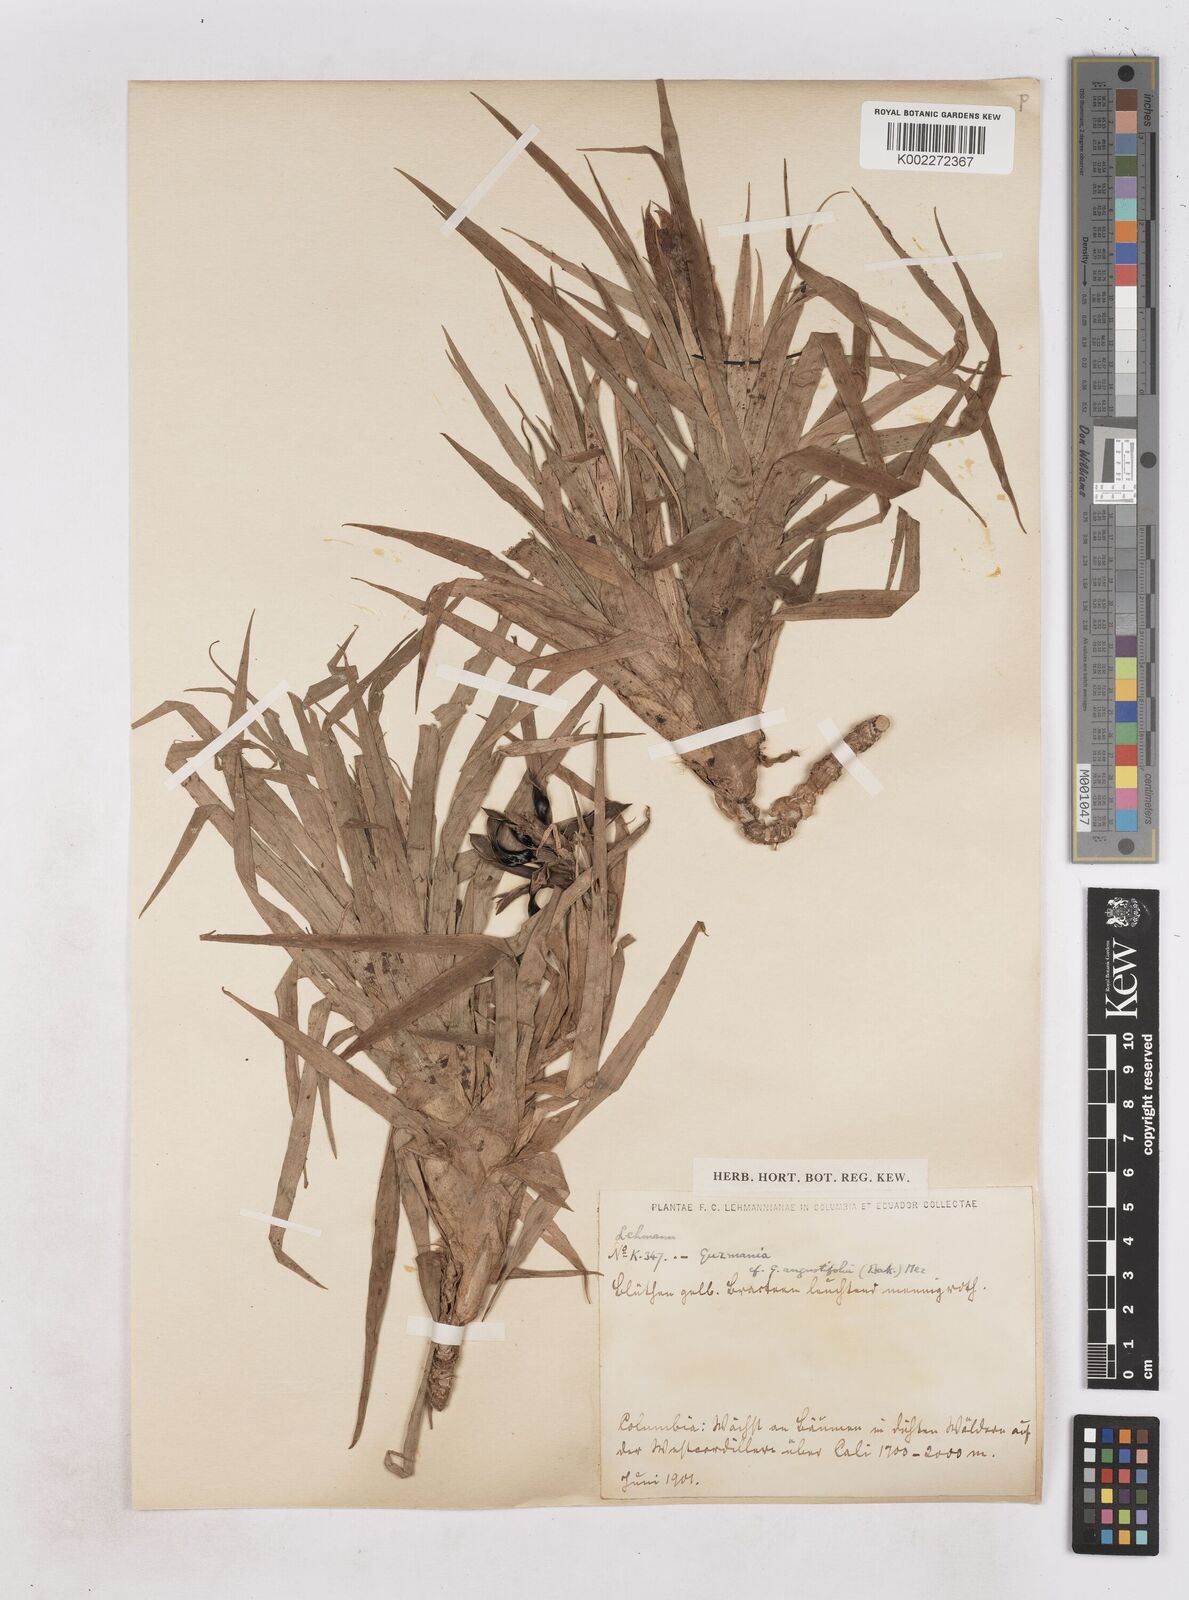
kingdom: Plantae
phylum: Tracheophyta
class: Liliopsida
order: Poales
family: Bromeliaceae
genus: Guzmania
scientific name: Guzmania angustifolia
